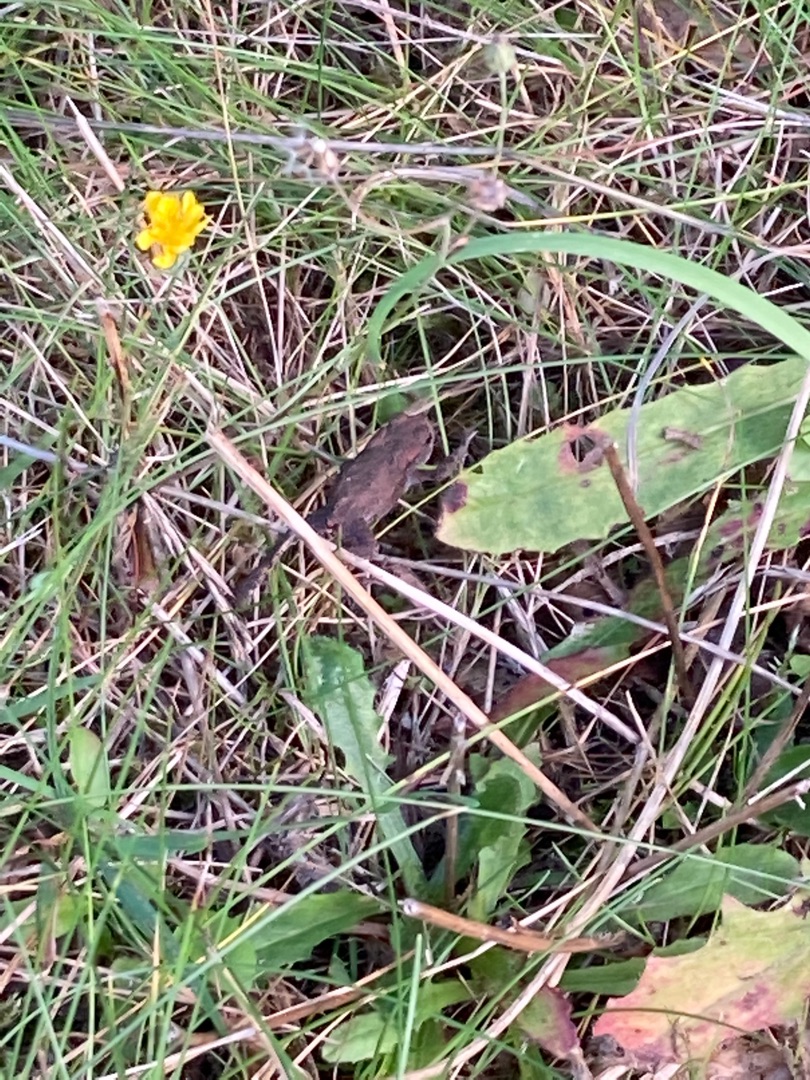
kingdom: Animalia
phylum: Chordata
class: Amphibia
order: Anura
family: Bufonidae
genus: Bufo
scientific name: Bufo bufo
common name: Skrubtudse
